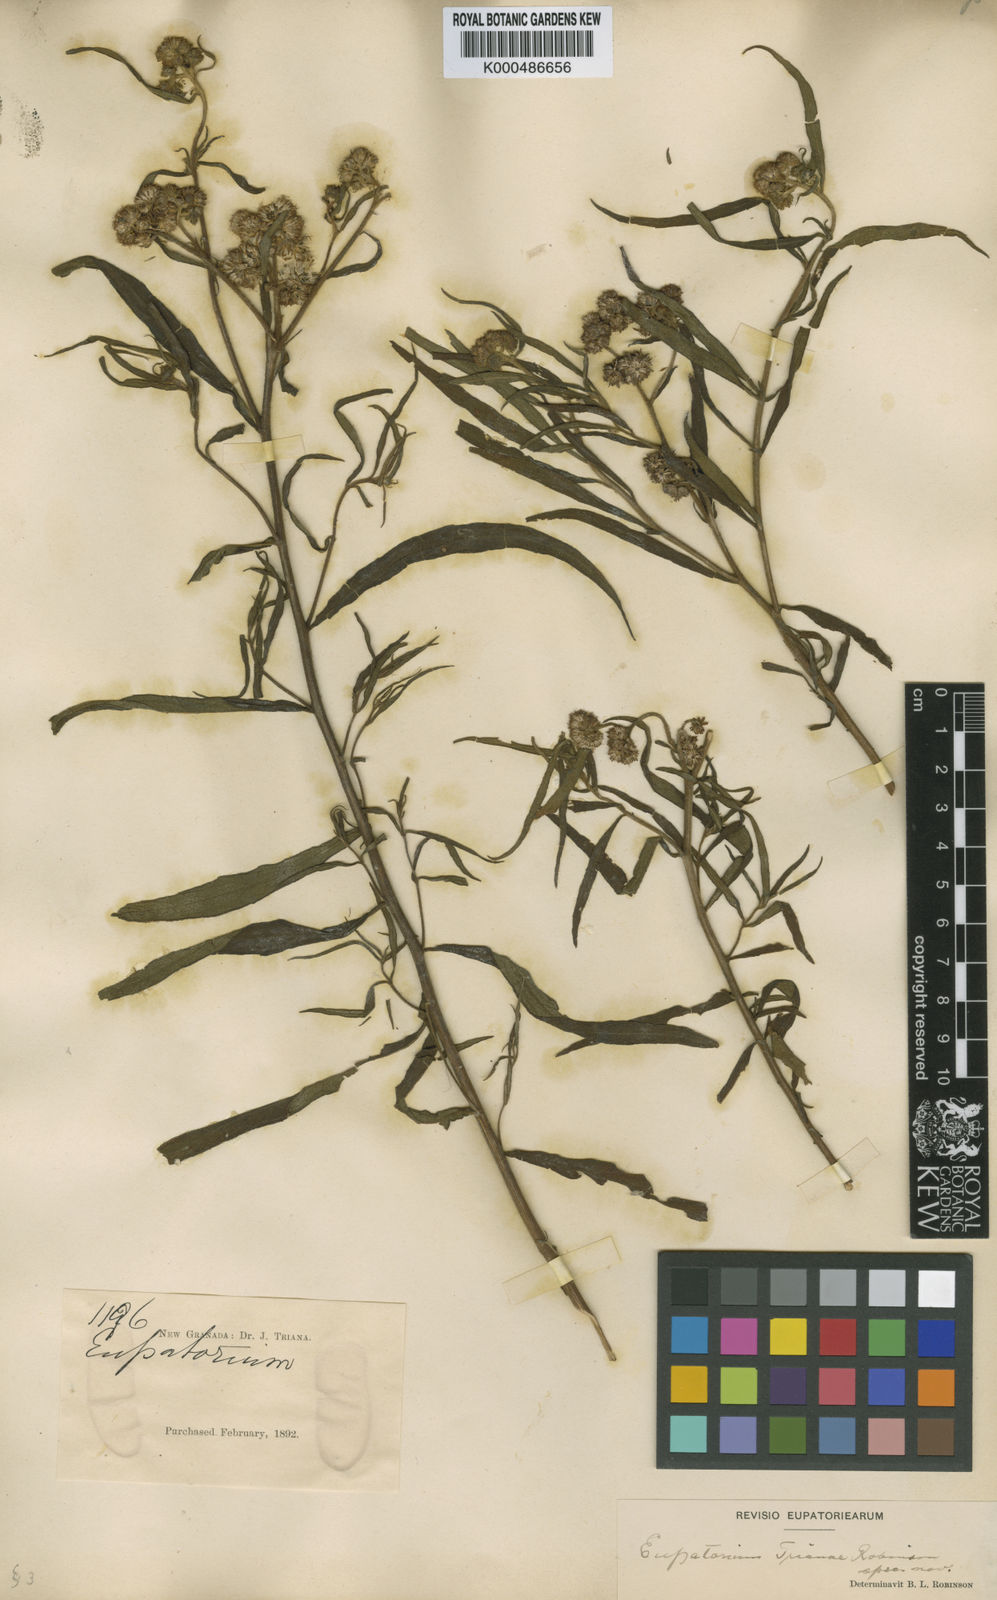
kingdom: Plantae
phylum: Tracheophyta
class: Magnoliopsida
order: Asterales
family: Asteraceae
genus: Barrosoa
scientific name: Barrosoa trianae
